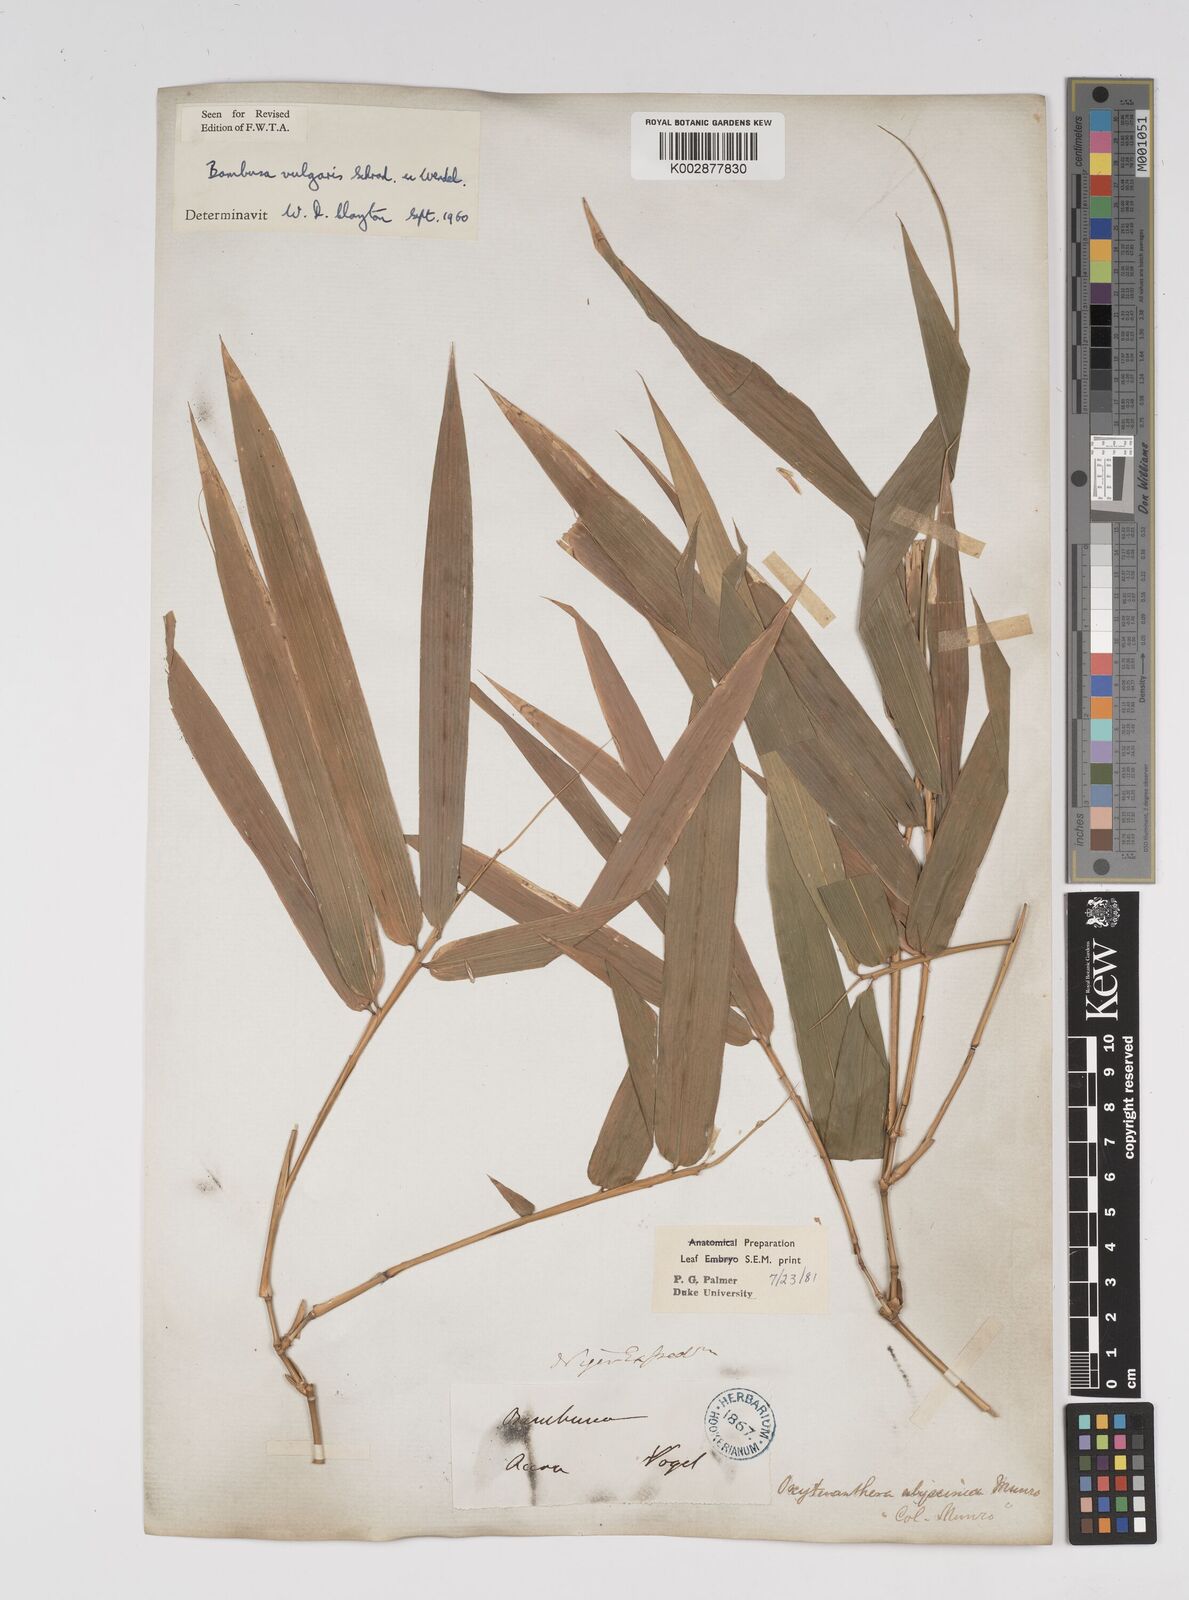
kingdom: Plantae
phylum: Tracheophyta
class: Liliopsida
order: Poales
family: Poaceae
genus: Bambusa
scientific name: Bambusa vulgaris
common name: Common bamboo
